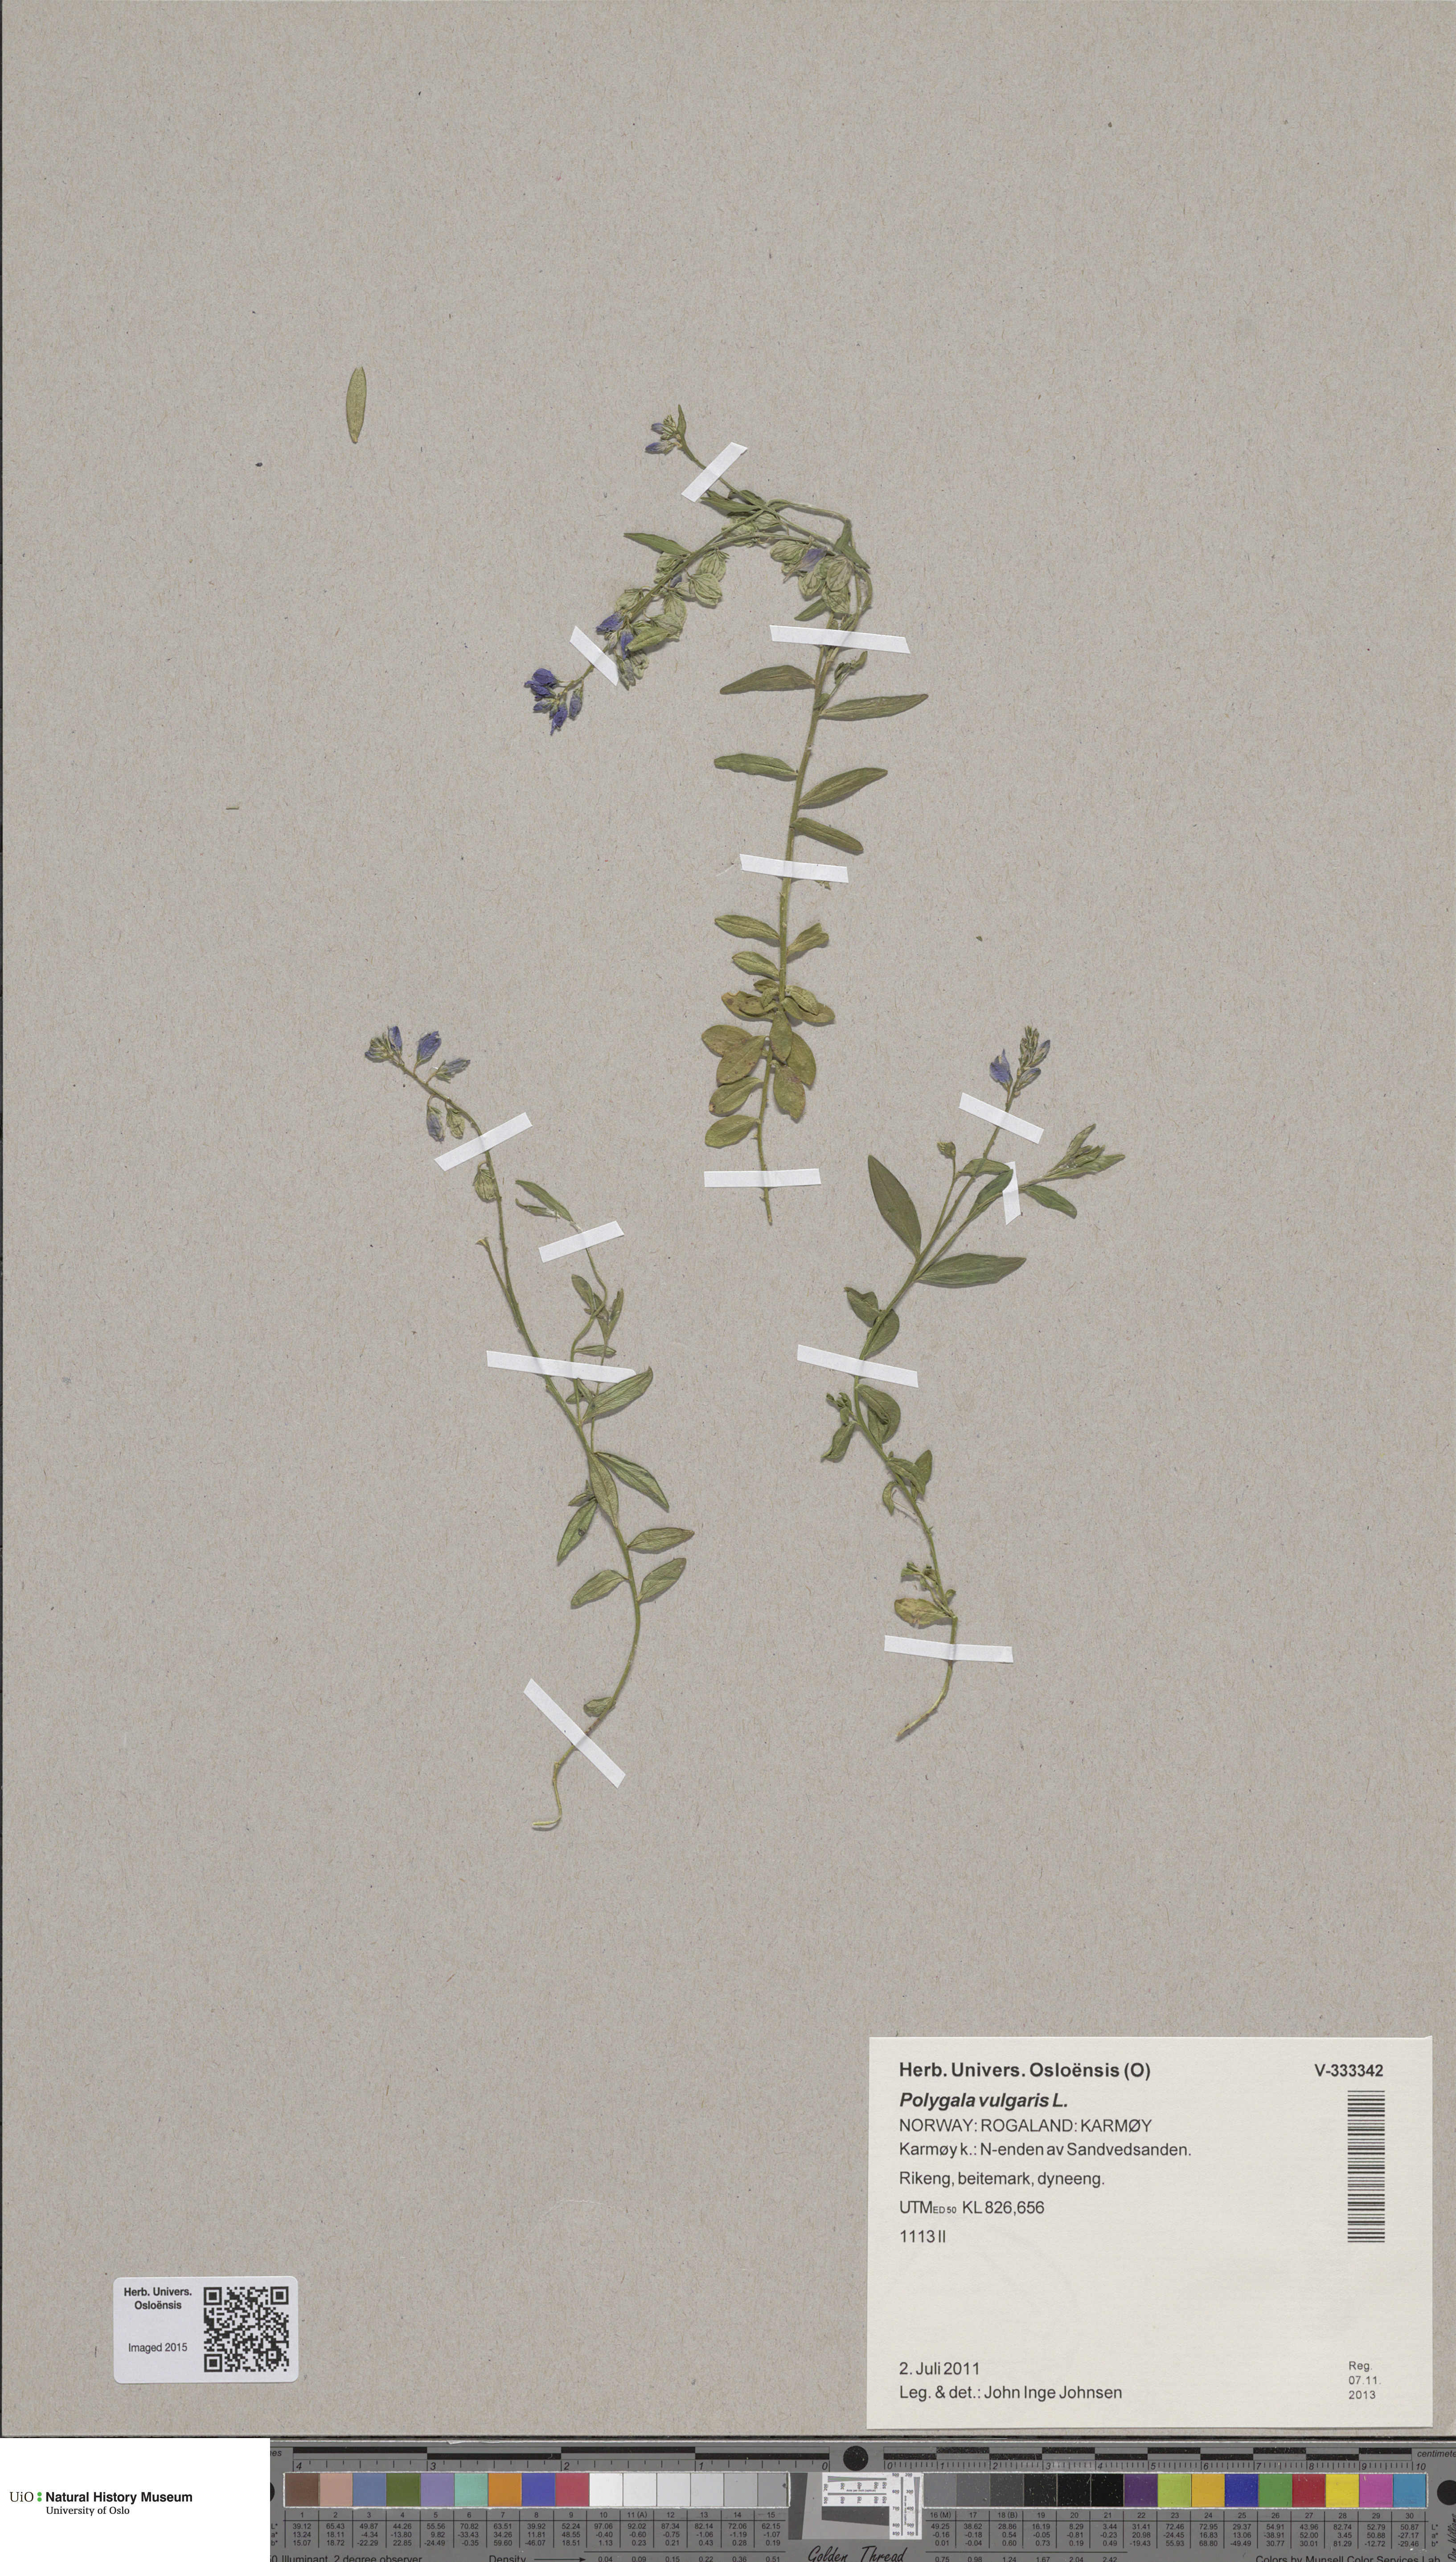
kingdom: Plantae
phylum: Tracheophyta
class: Magnoliopsida
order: Fabales
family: Polygalaceae
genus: Polygala
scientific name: Polygala vulgaris
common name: Common milkwort
